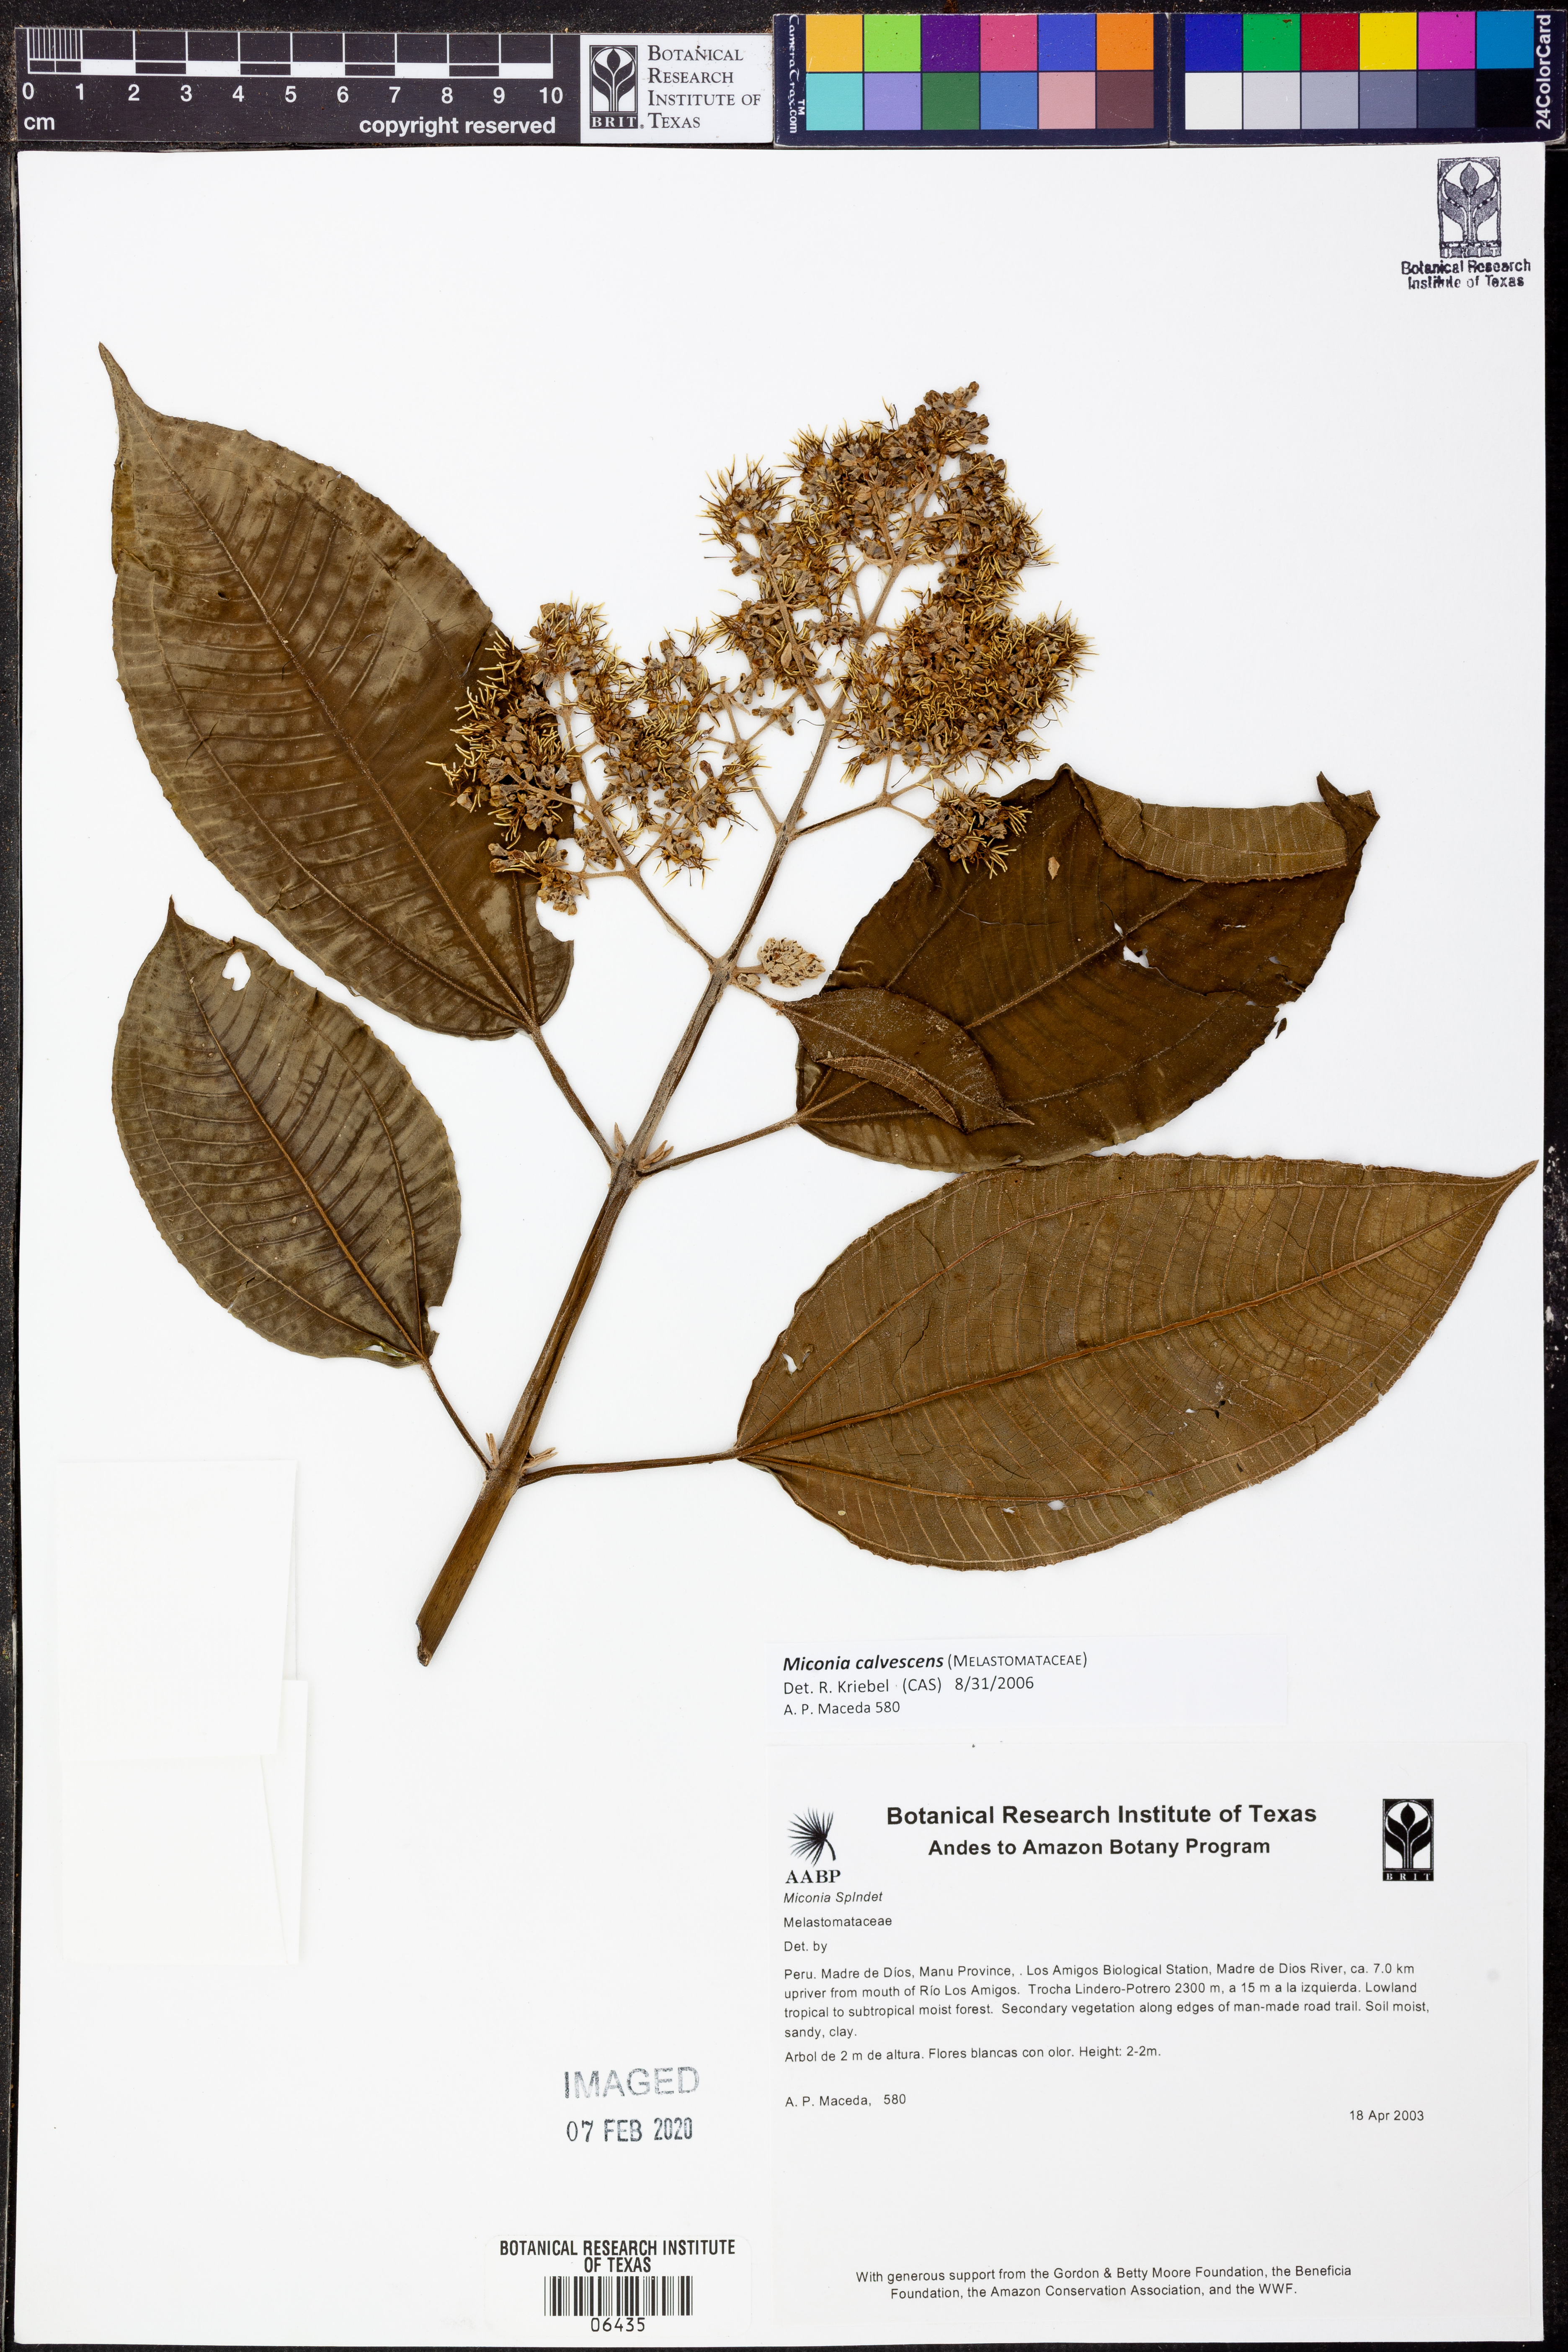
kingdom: Plantae
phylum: Tracheophyta
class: Magnoliopsida
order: Myrtales
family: Melastomataceae
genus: Miconia
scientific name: Miconia calvescens
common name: Purple plague
